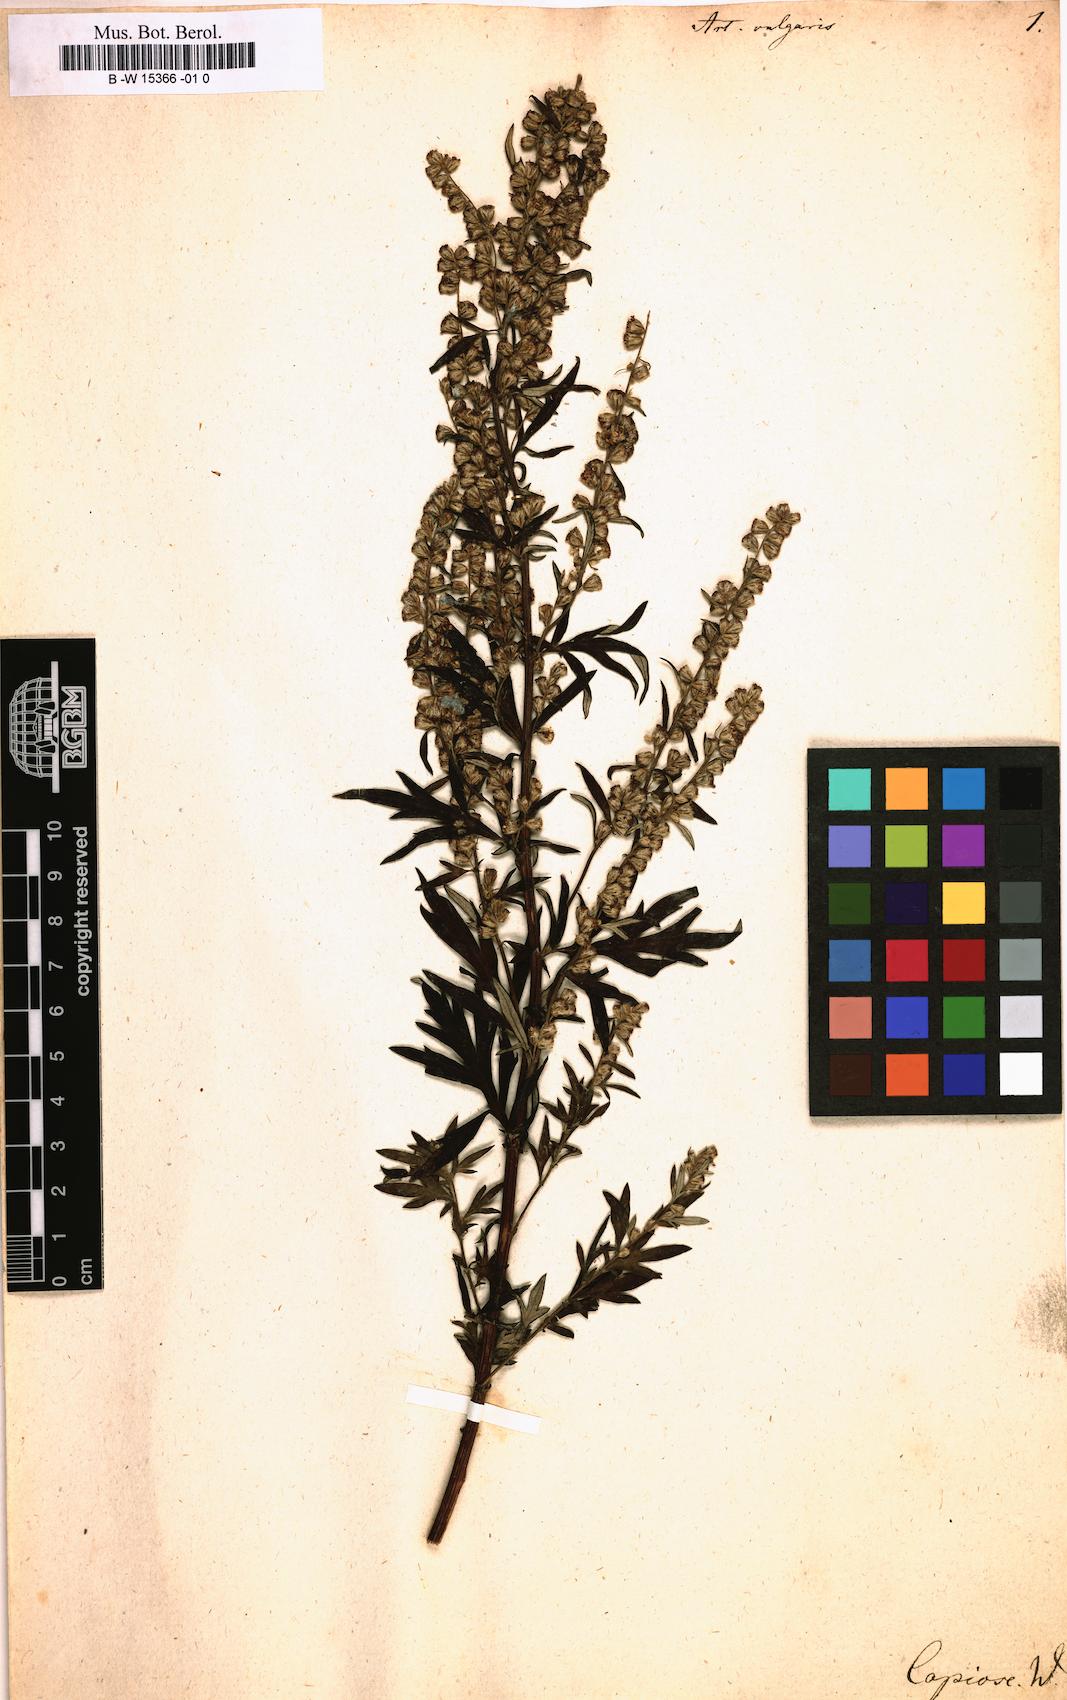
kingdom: Plantae
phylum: Tracheophyta
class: Magnoliopsida
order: Asterales
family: Asteraceae
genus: Artemisia
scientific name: Artemisia vulgaris
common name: Mugwort
